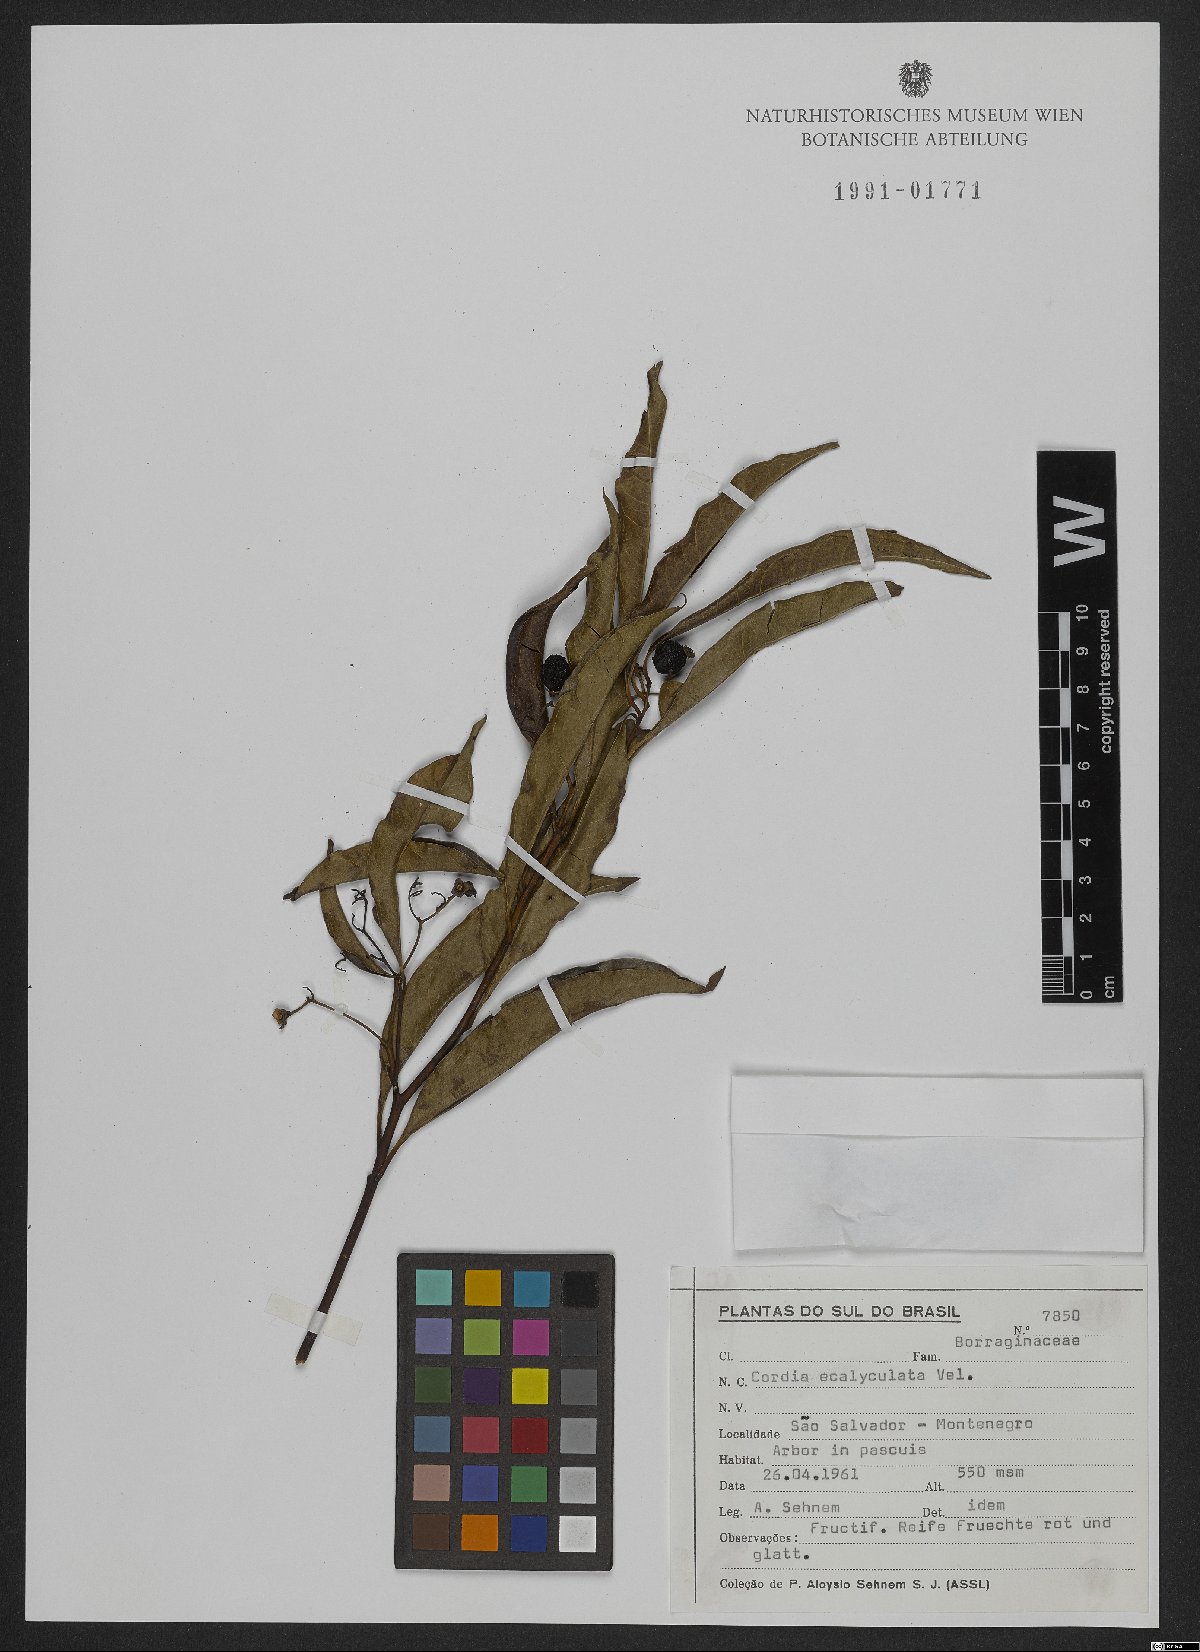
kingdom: Plantae
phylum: Tracheophyta
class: Magnoliopsida
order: Boraginales
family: Cordiaceae
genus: Cordia
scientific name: Cordia ecalyculata
